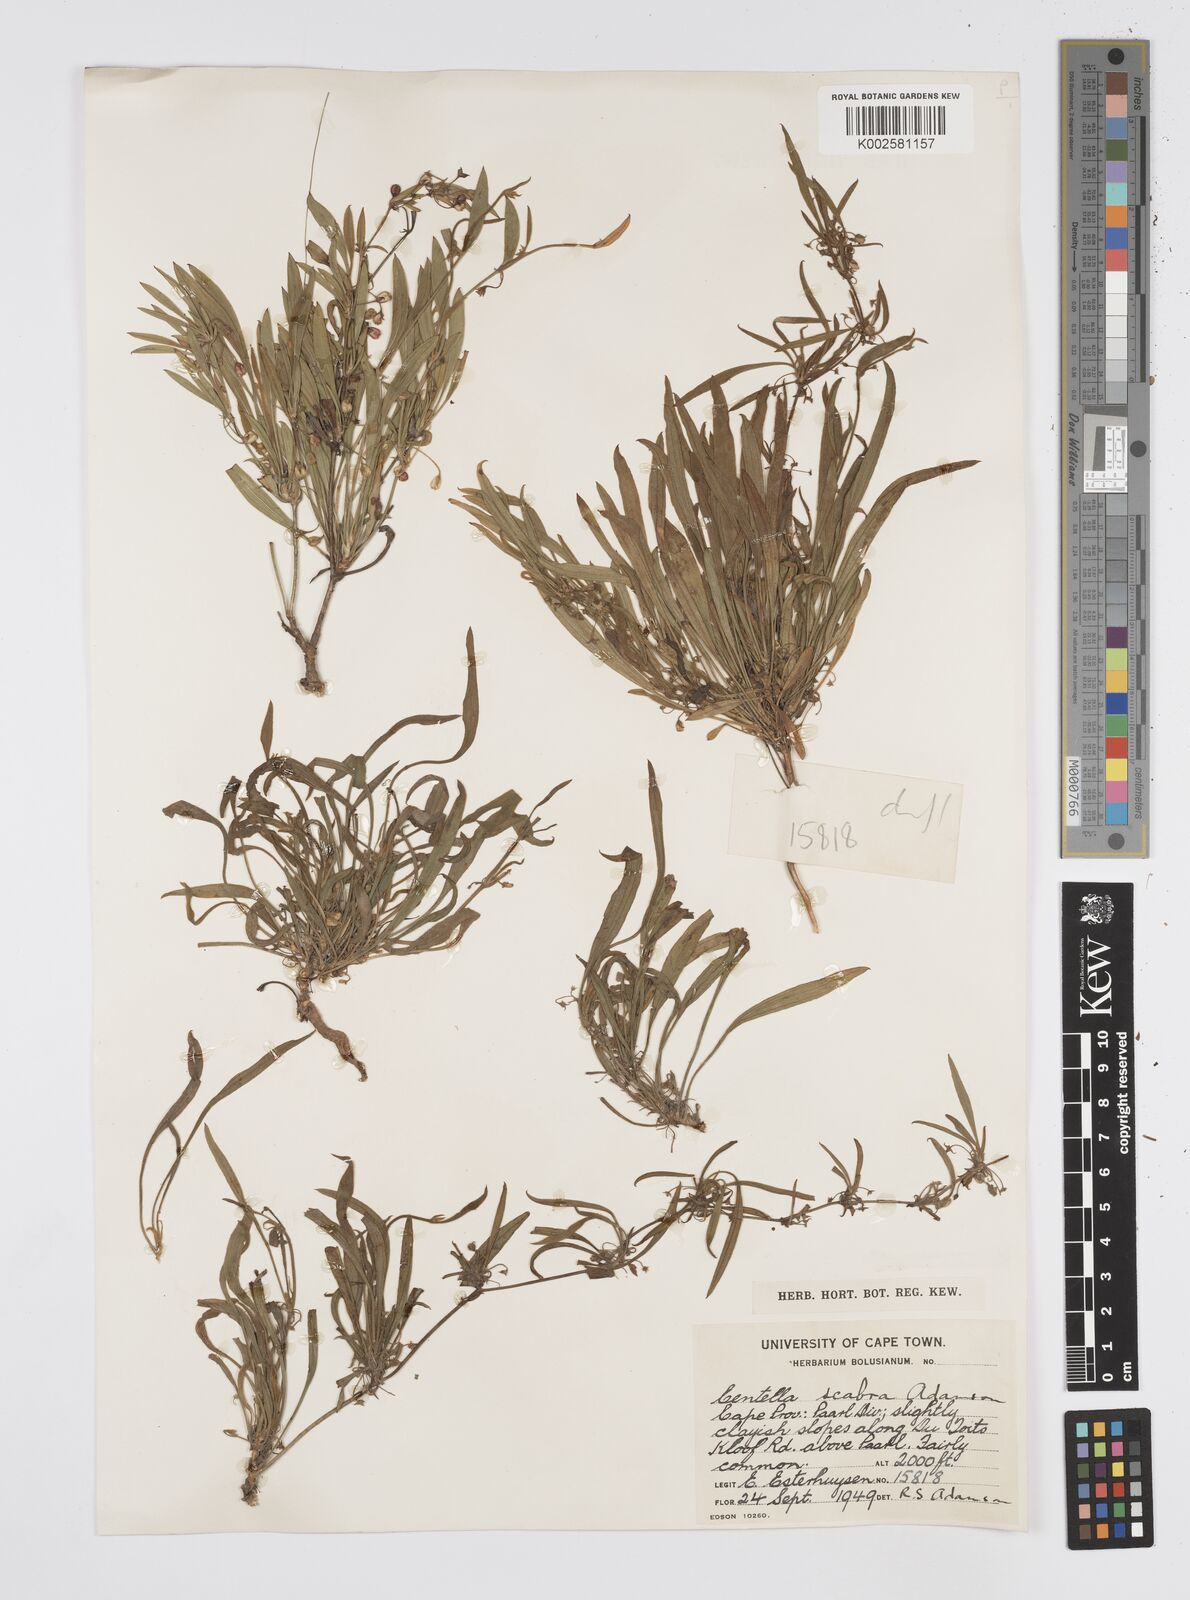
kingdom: Plantae
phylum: Tracheophyta
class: Magnoliopsida
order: Apiales
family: Apiaceae
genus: Centella
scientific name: Centella scabra
